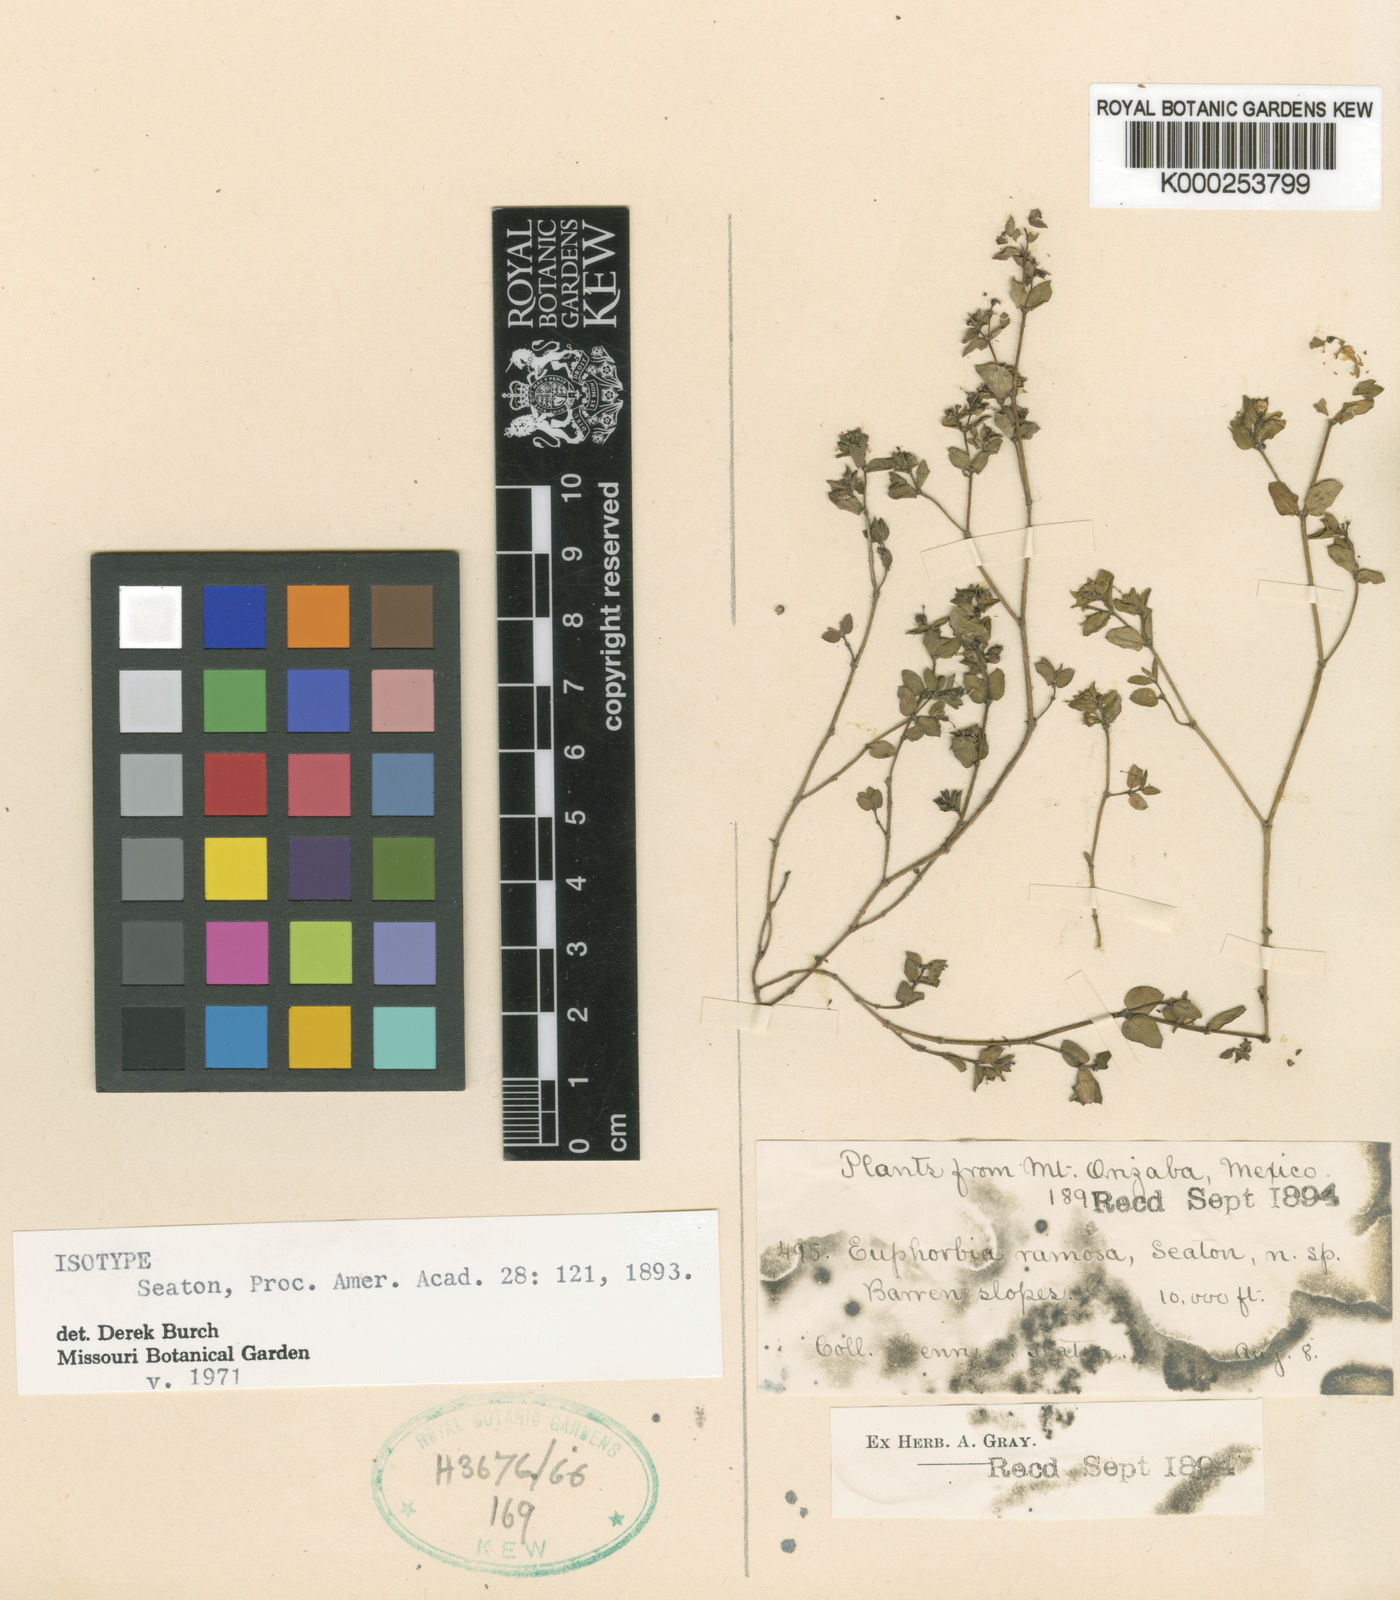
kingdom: Plantae
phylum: Tracheophyta
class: Magnoliopsida
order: Malpighiales
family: Euphorbiaceae
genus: Euphorbia
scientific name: Euphorbia ramosa
